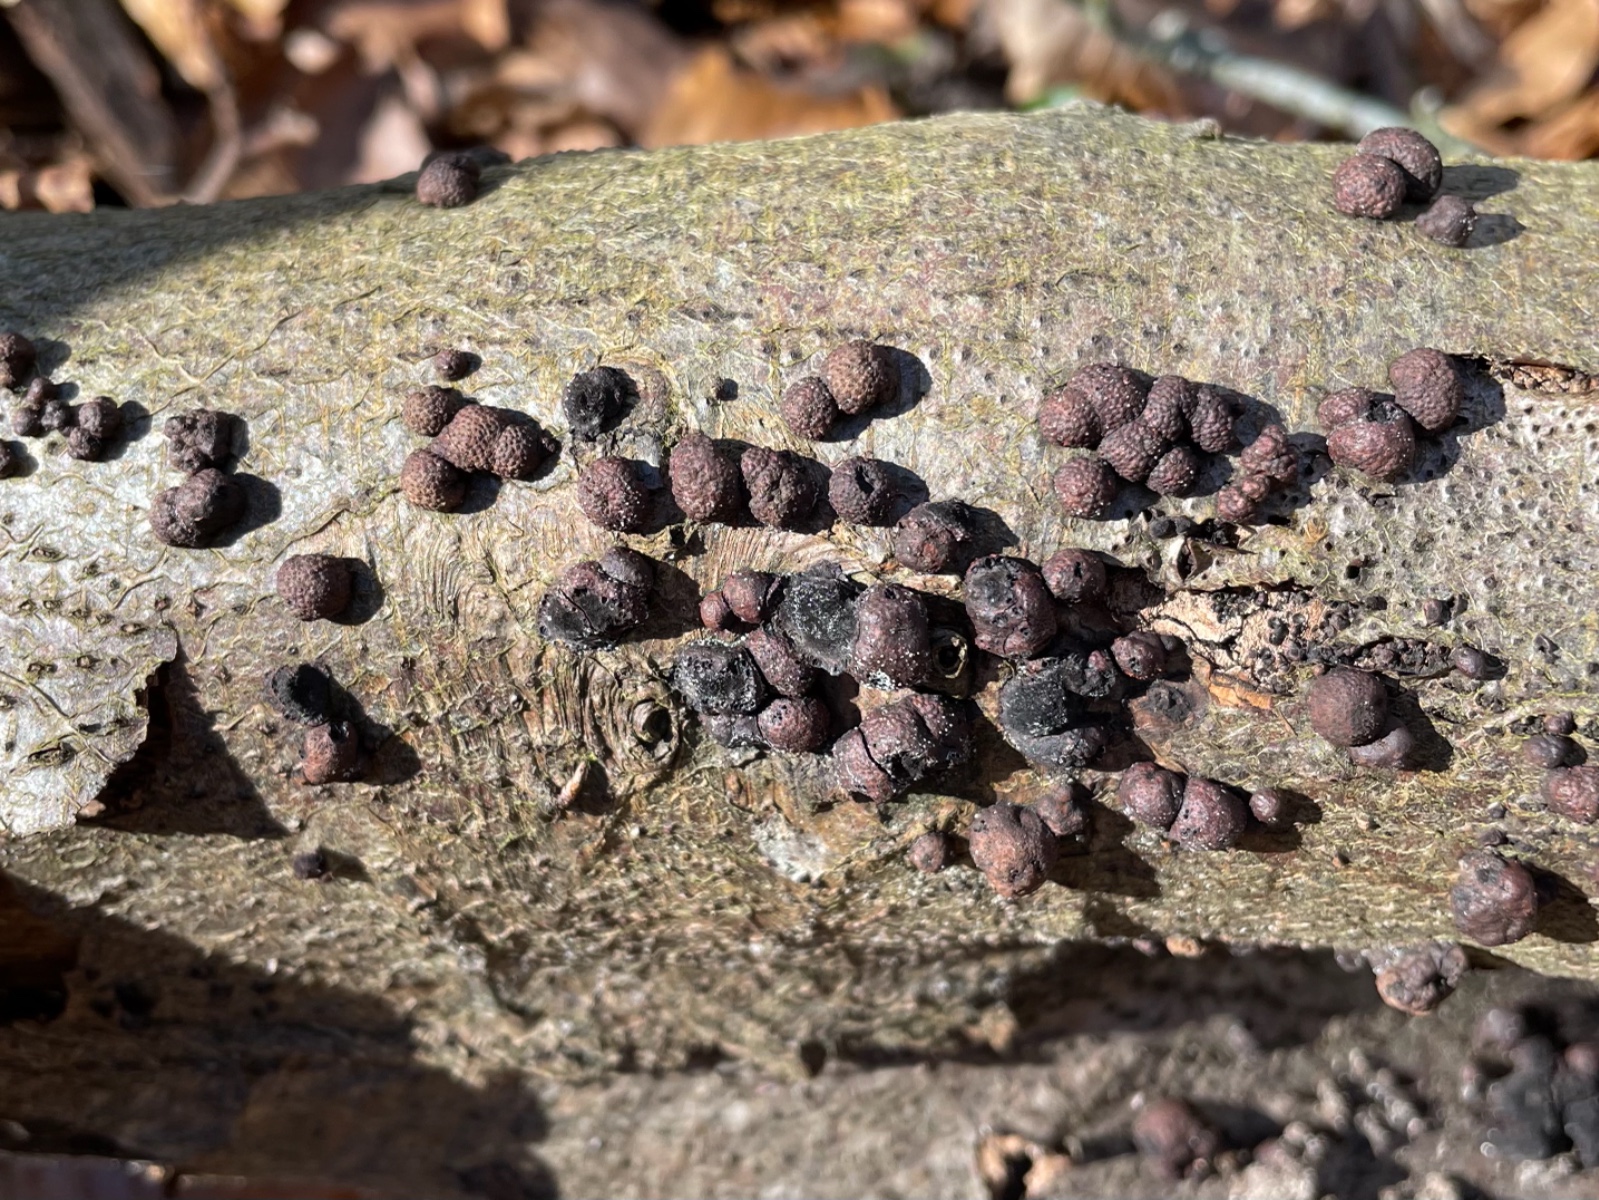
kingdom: Fungi
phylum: Ascomycota
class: Sordariomycetes
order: Xylariales
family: Hypoxylaceae
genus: Hypoxylon
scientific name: Hypoxylon fragiforme
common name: kuljordbær
